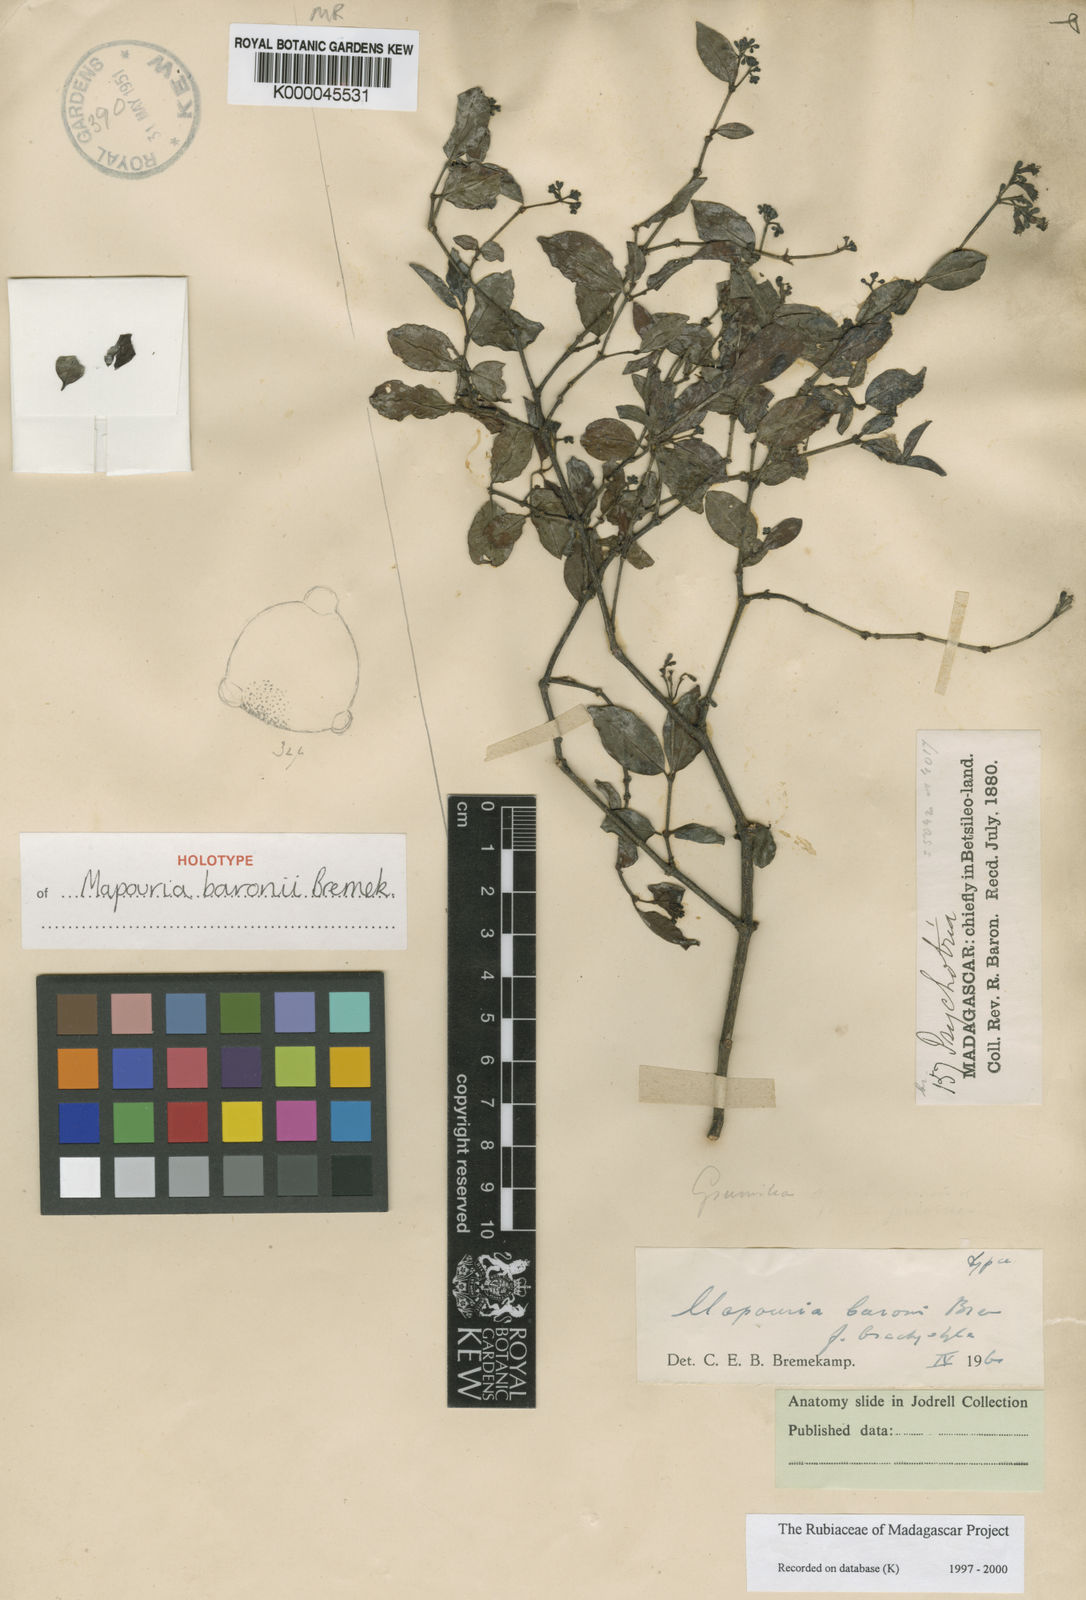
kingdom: Plantae
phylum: Tracheophyta
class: Magnoliopsida
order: Gentianales
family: Rubiaceae
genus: Psychotria
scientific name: Psychotria baronii
